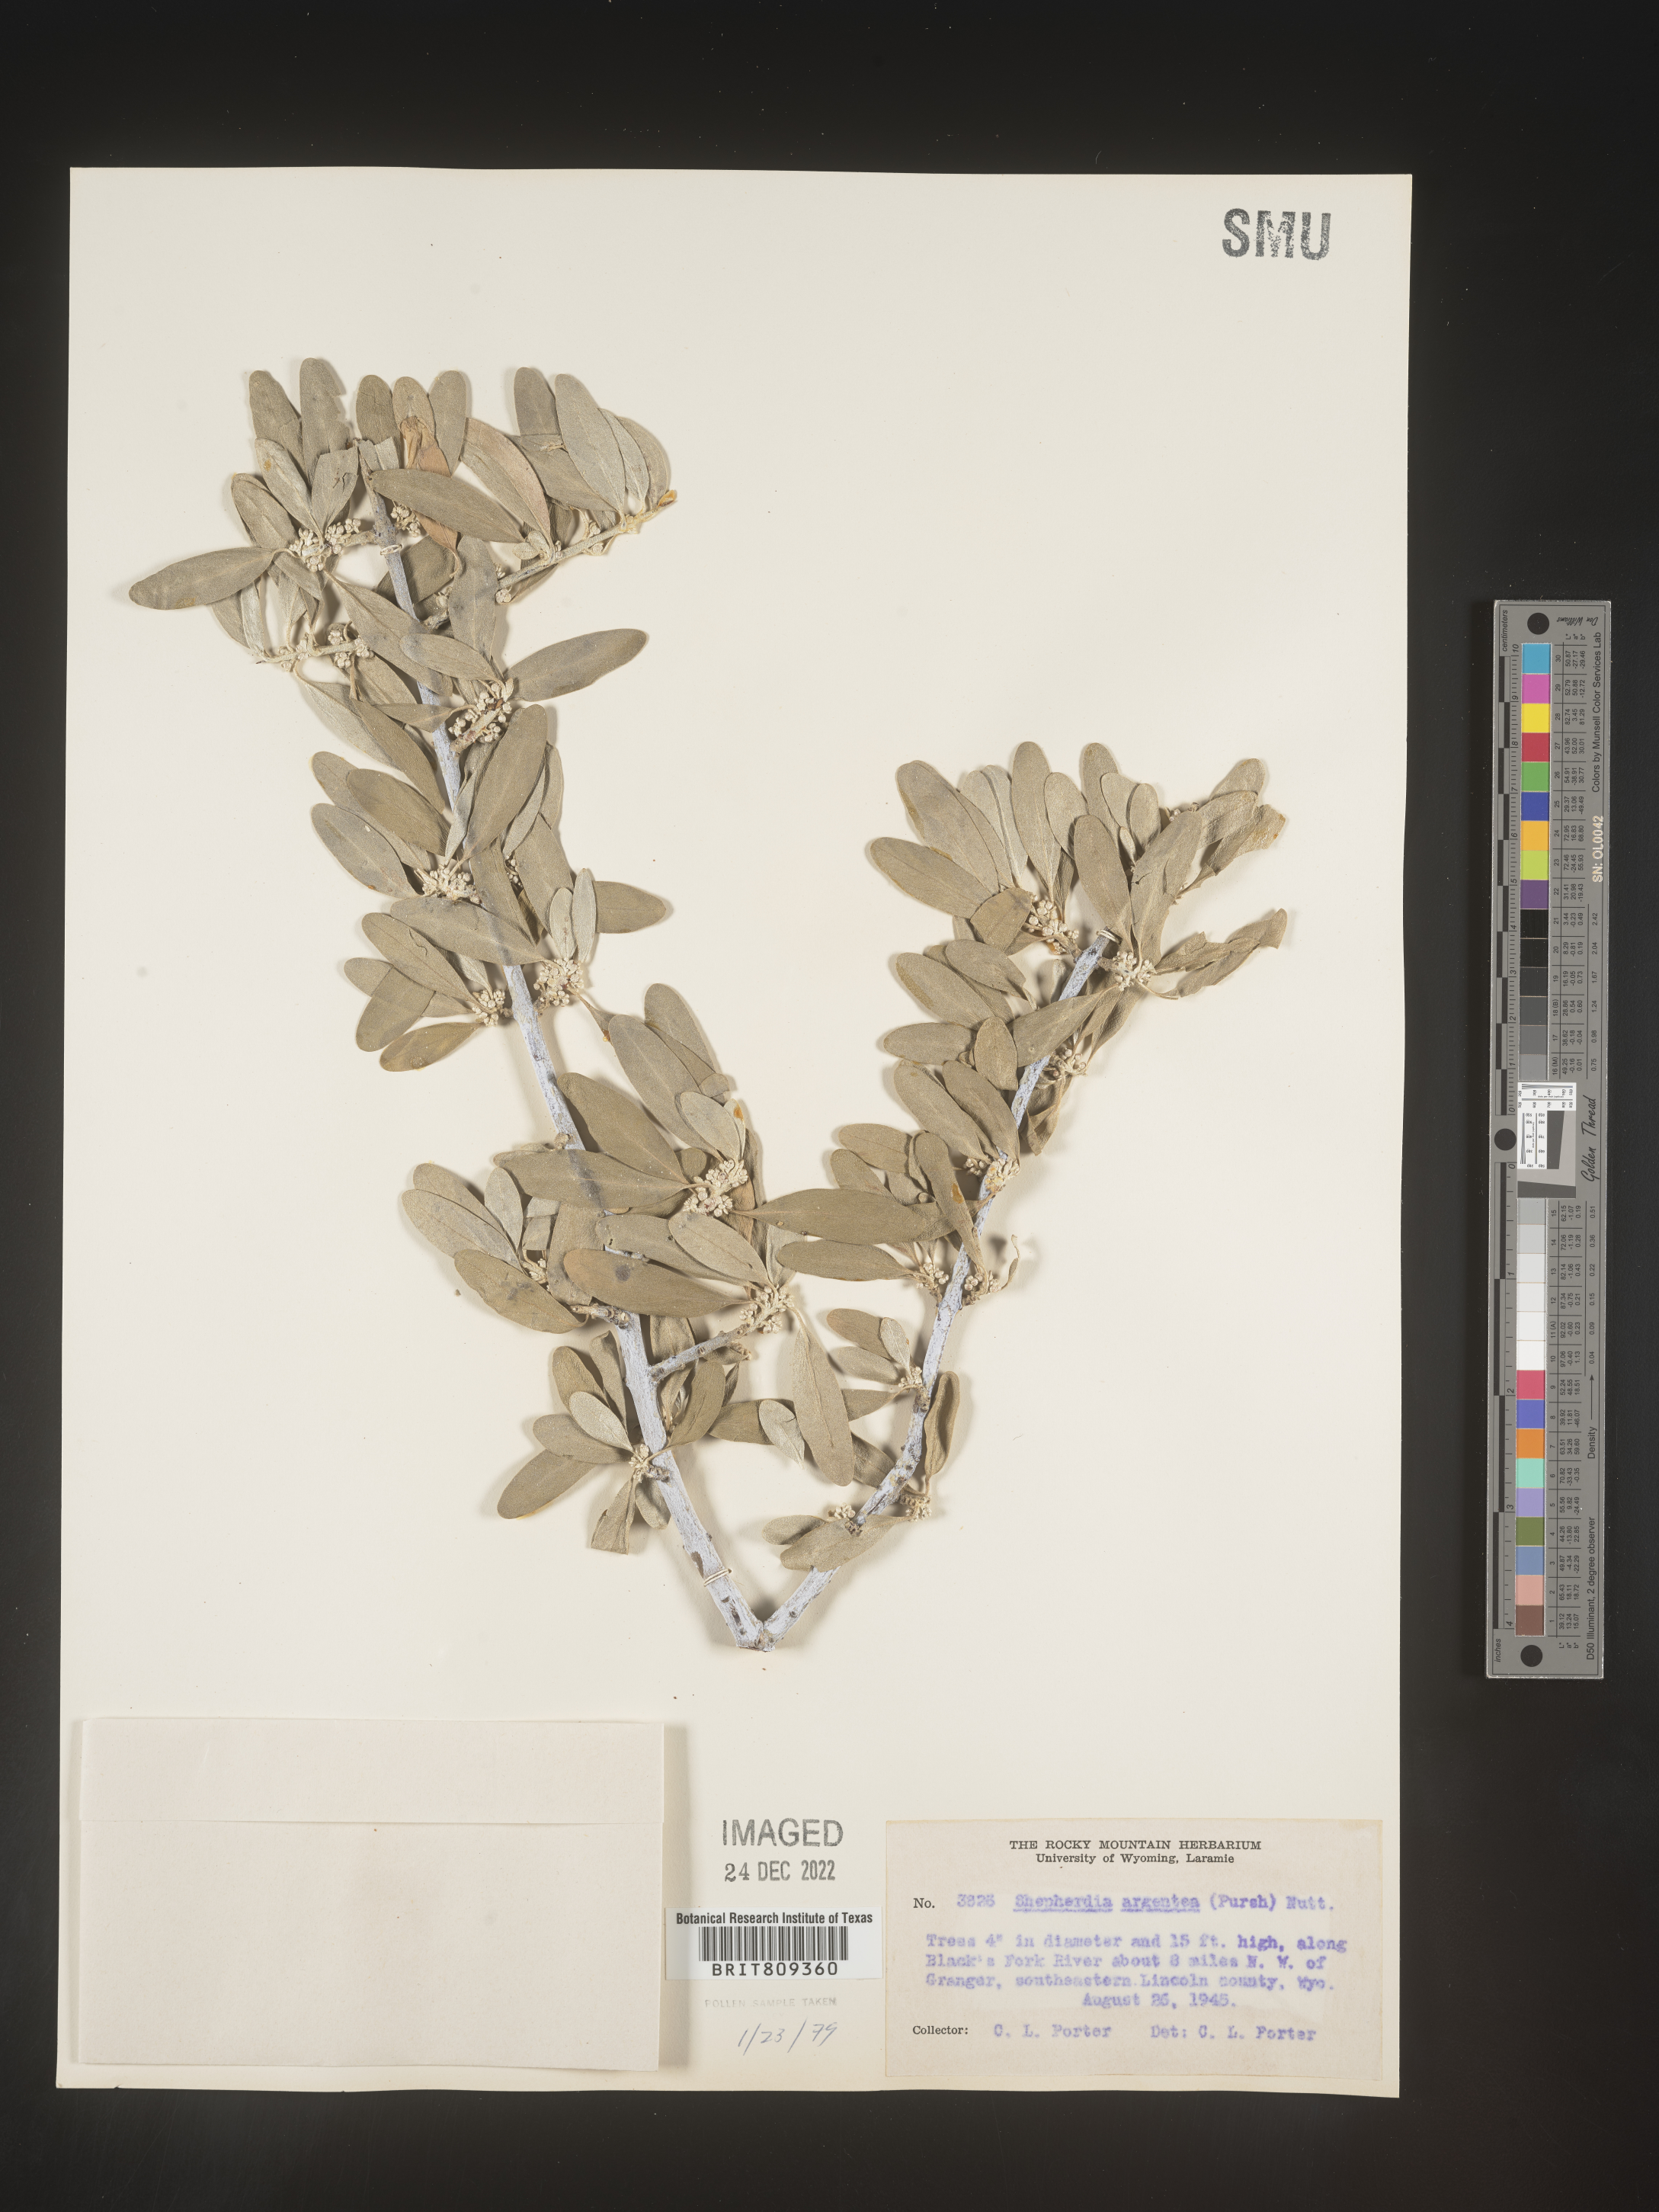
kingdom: Plantae
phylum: Tracheophyta
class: Magnoliopsida
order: Rosales
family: Elaeagnaceae
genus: Shepherdia
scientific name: Shepherdia argentea
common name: Silver buffaloberry
